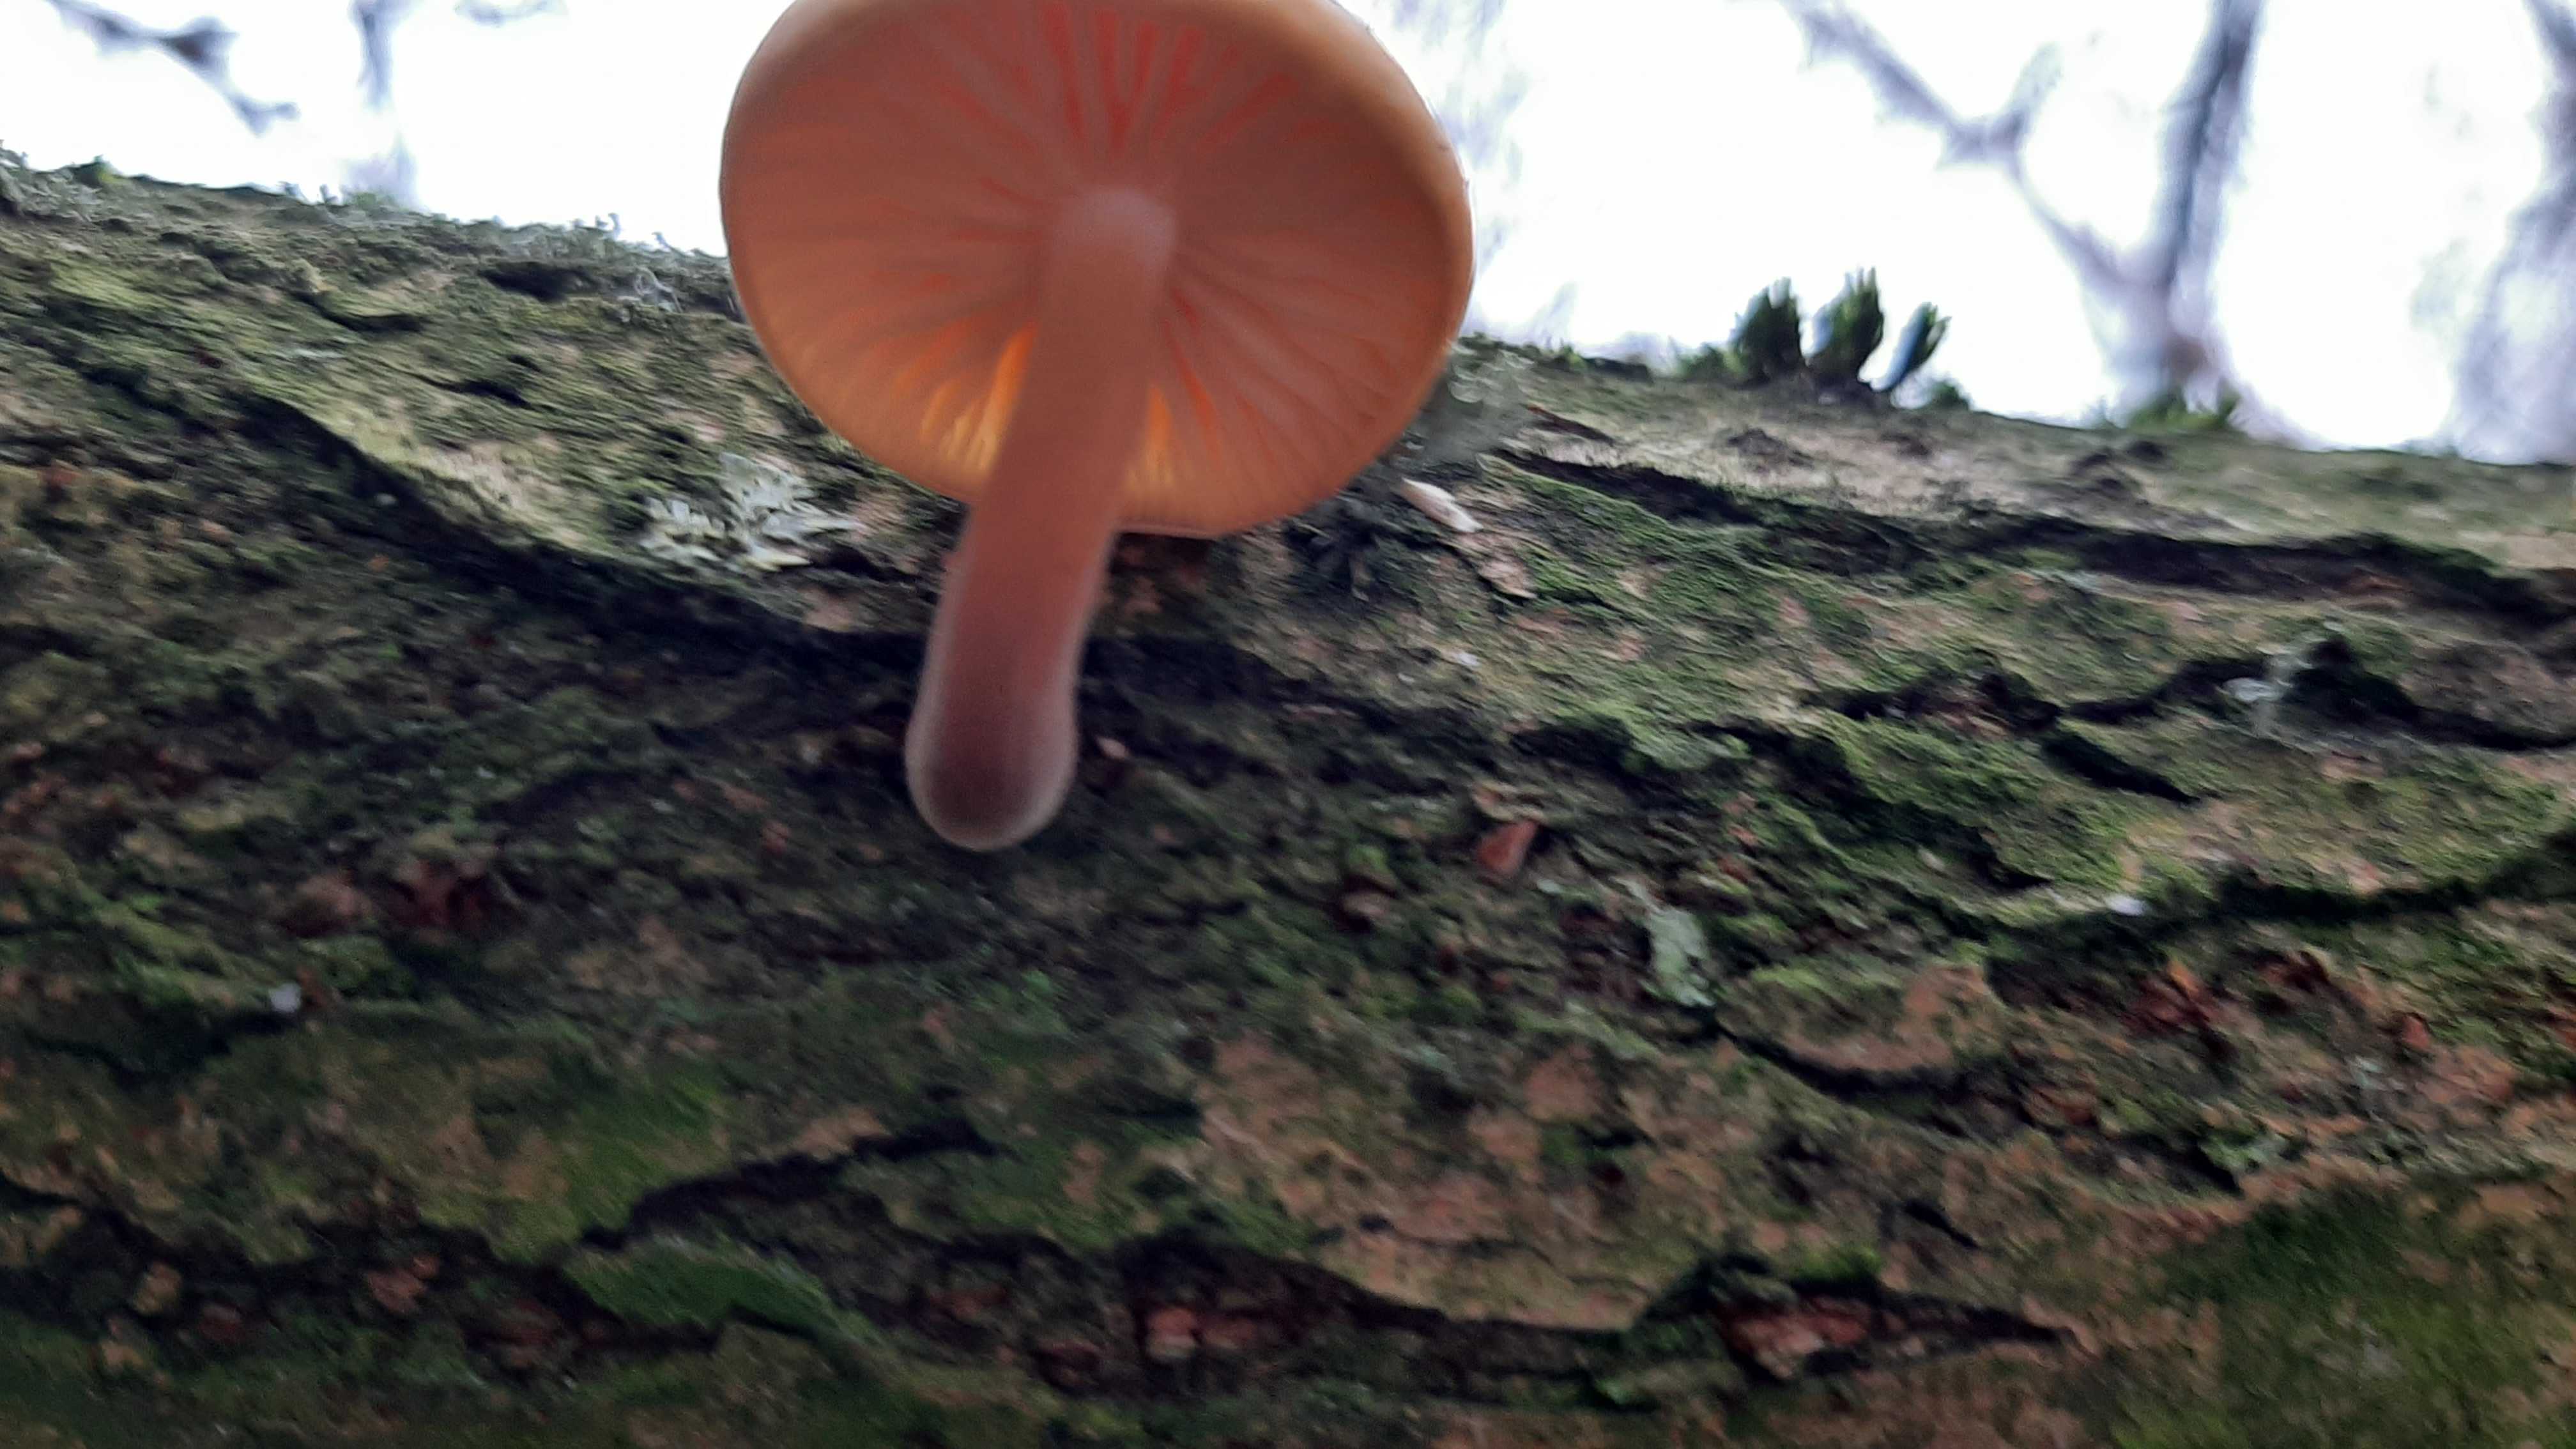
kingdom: Fungi
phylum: Basidiomycota
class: Agaricomycetes
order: Agaricales
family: Physalacriaceae
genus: Flammulina
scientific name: Flammulina
